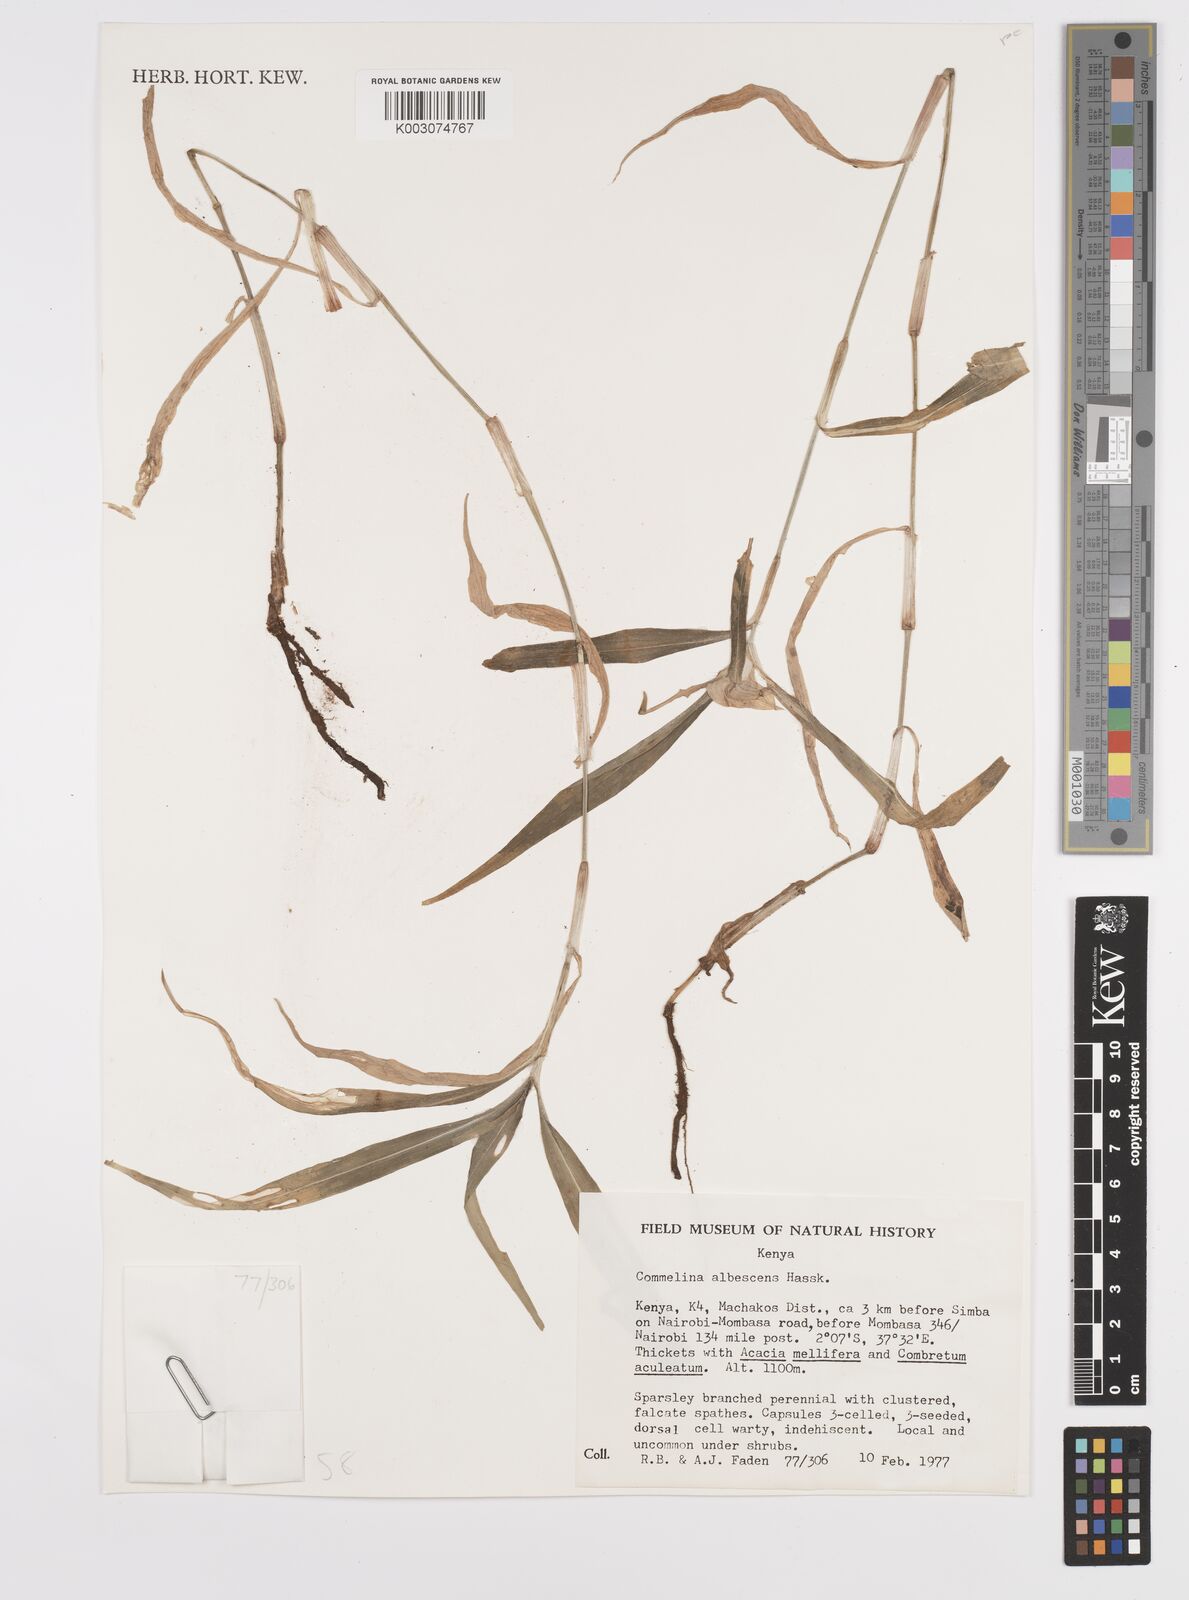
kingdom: Plantae
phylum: Tracheophyta
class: Liliopsida
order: Commelinales
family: Commelinaceae
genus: Commelina
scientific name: Commelina albescens
